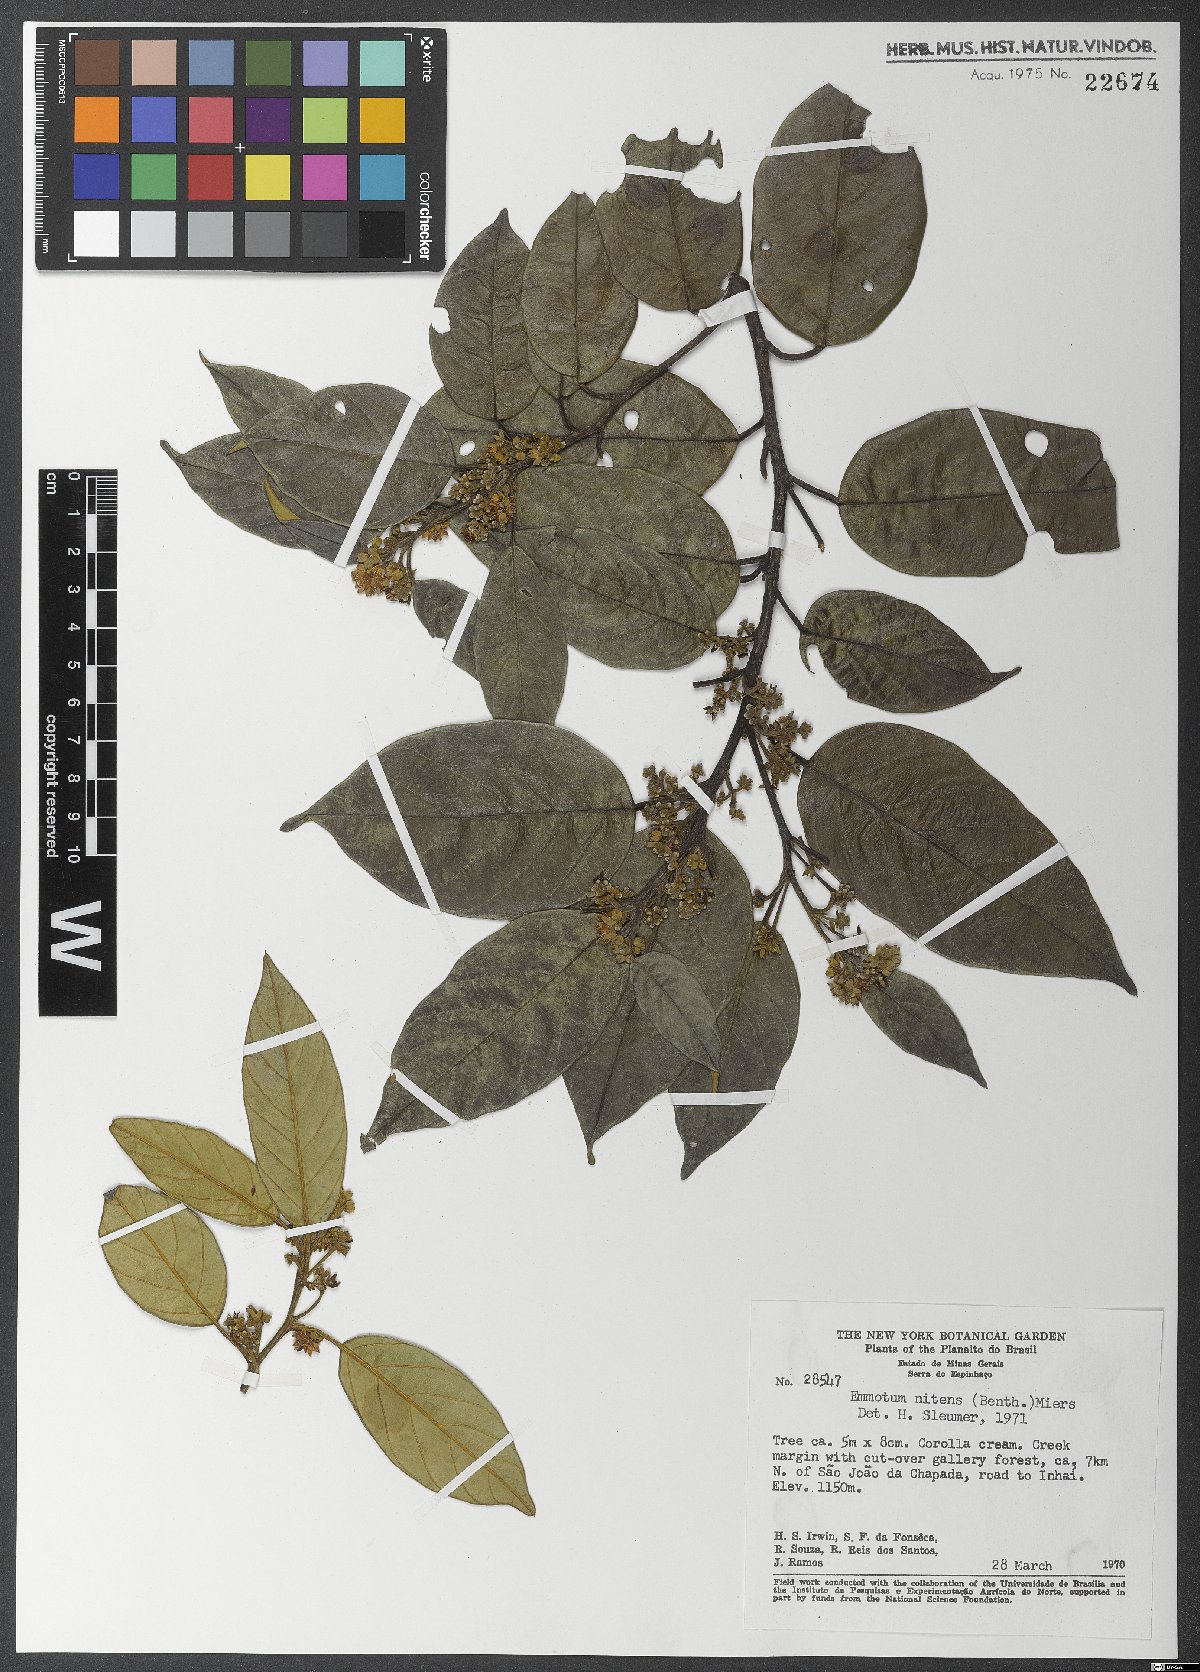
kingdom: Plantae
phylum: Tracheophyta
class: Magnoliopsida
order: Metteniusales
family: Metteniusaceae
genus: Emmotum
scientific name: Emmotum nitens
